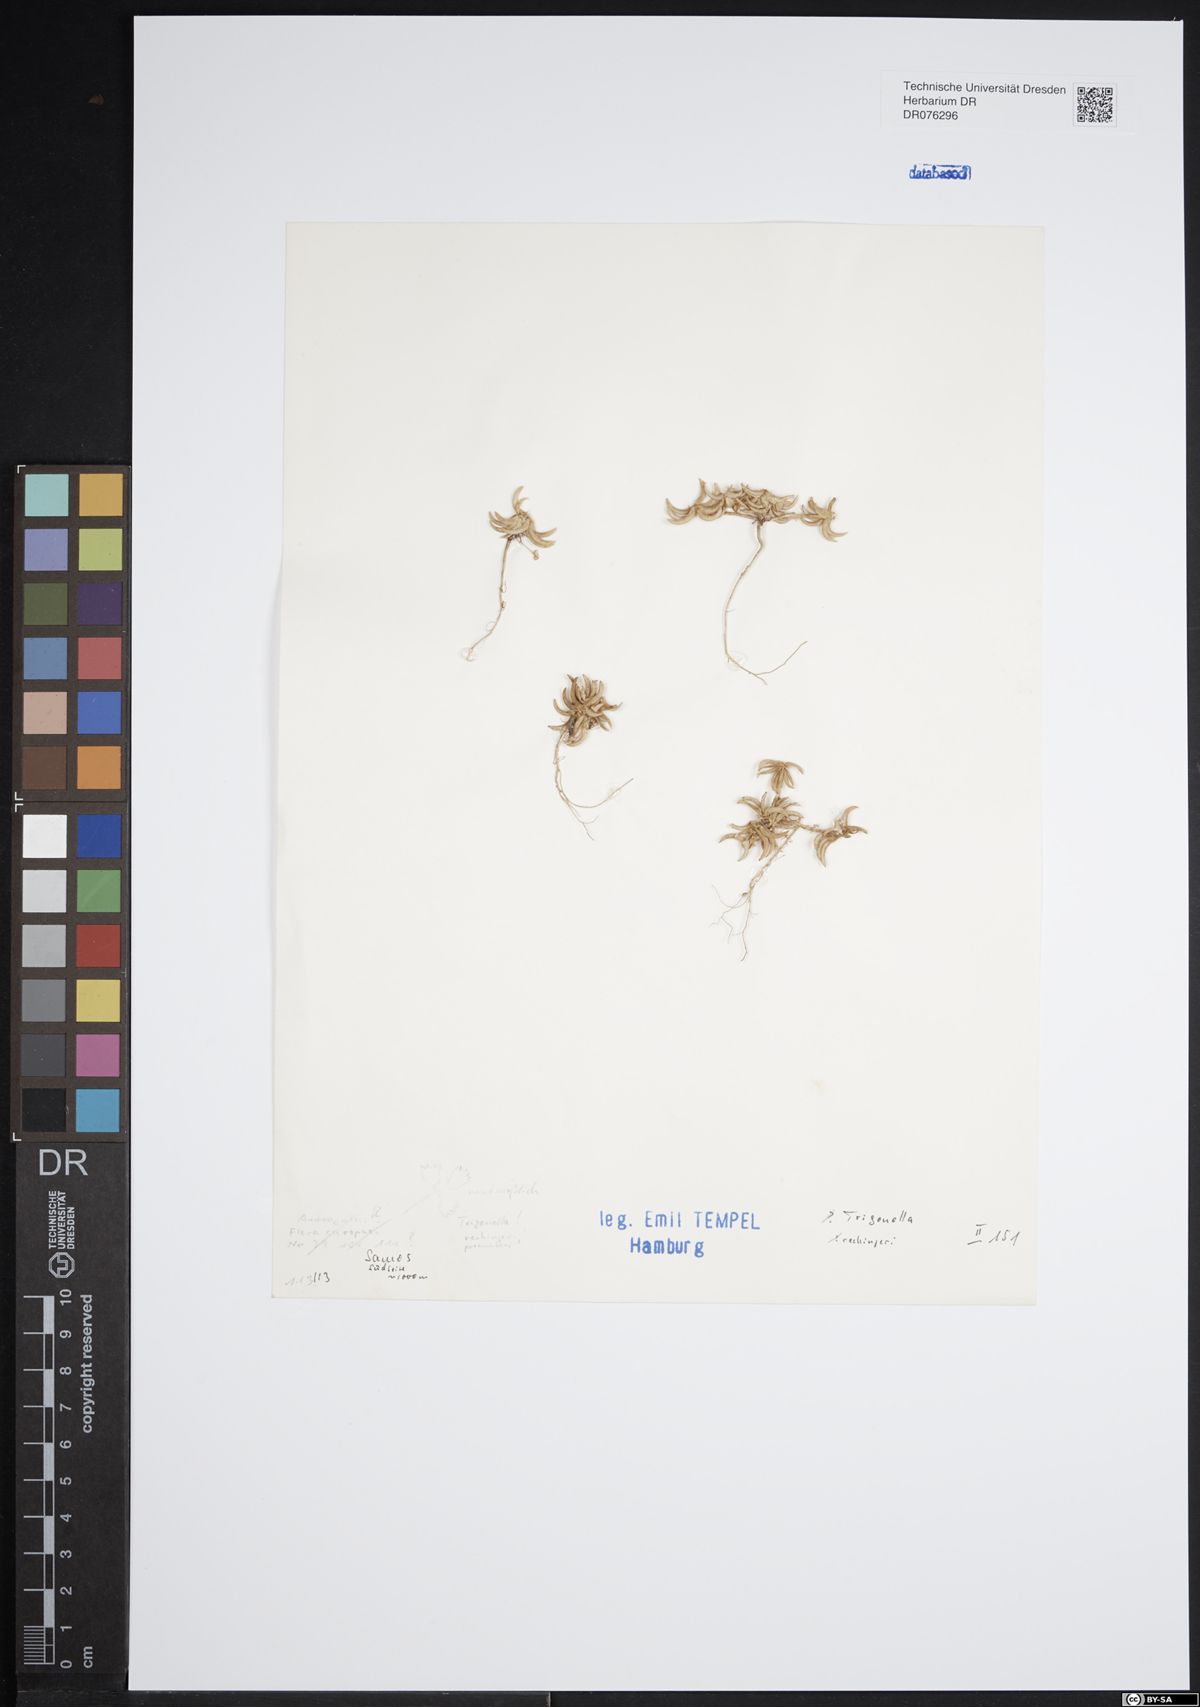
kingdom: Plantae
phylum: Tracheophyta
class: Magnoliopsida
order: Fabales
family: Fabaceae
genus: Trigonella
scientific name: Trigonella rechingeri
